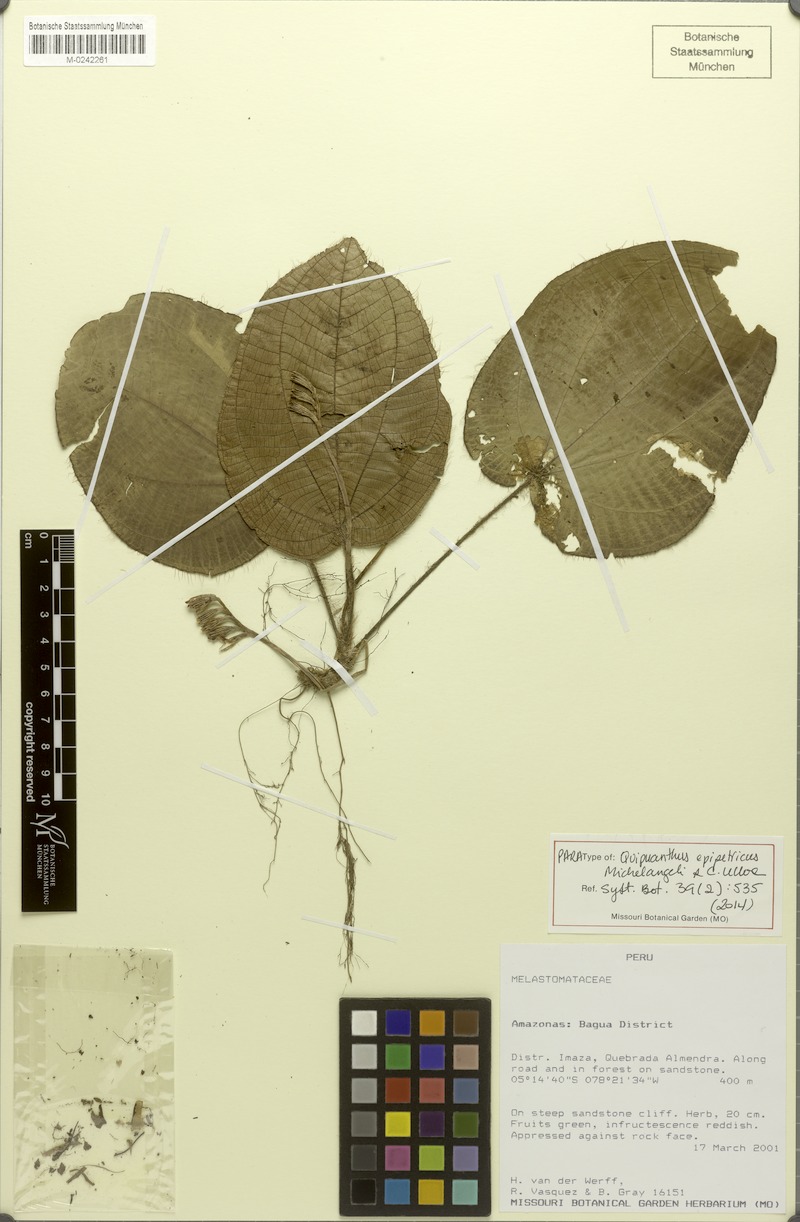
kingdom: Plantae
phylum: Tracheophyta
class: Magnoliopsida
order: Myrtales
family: Melastomataceae
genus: Quipuanthus
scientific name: Quipuanthus epipetricus
